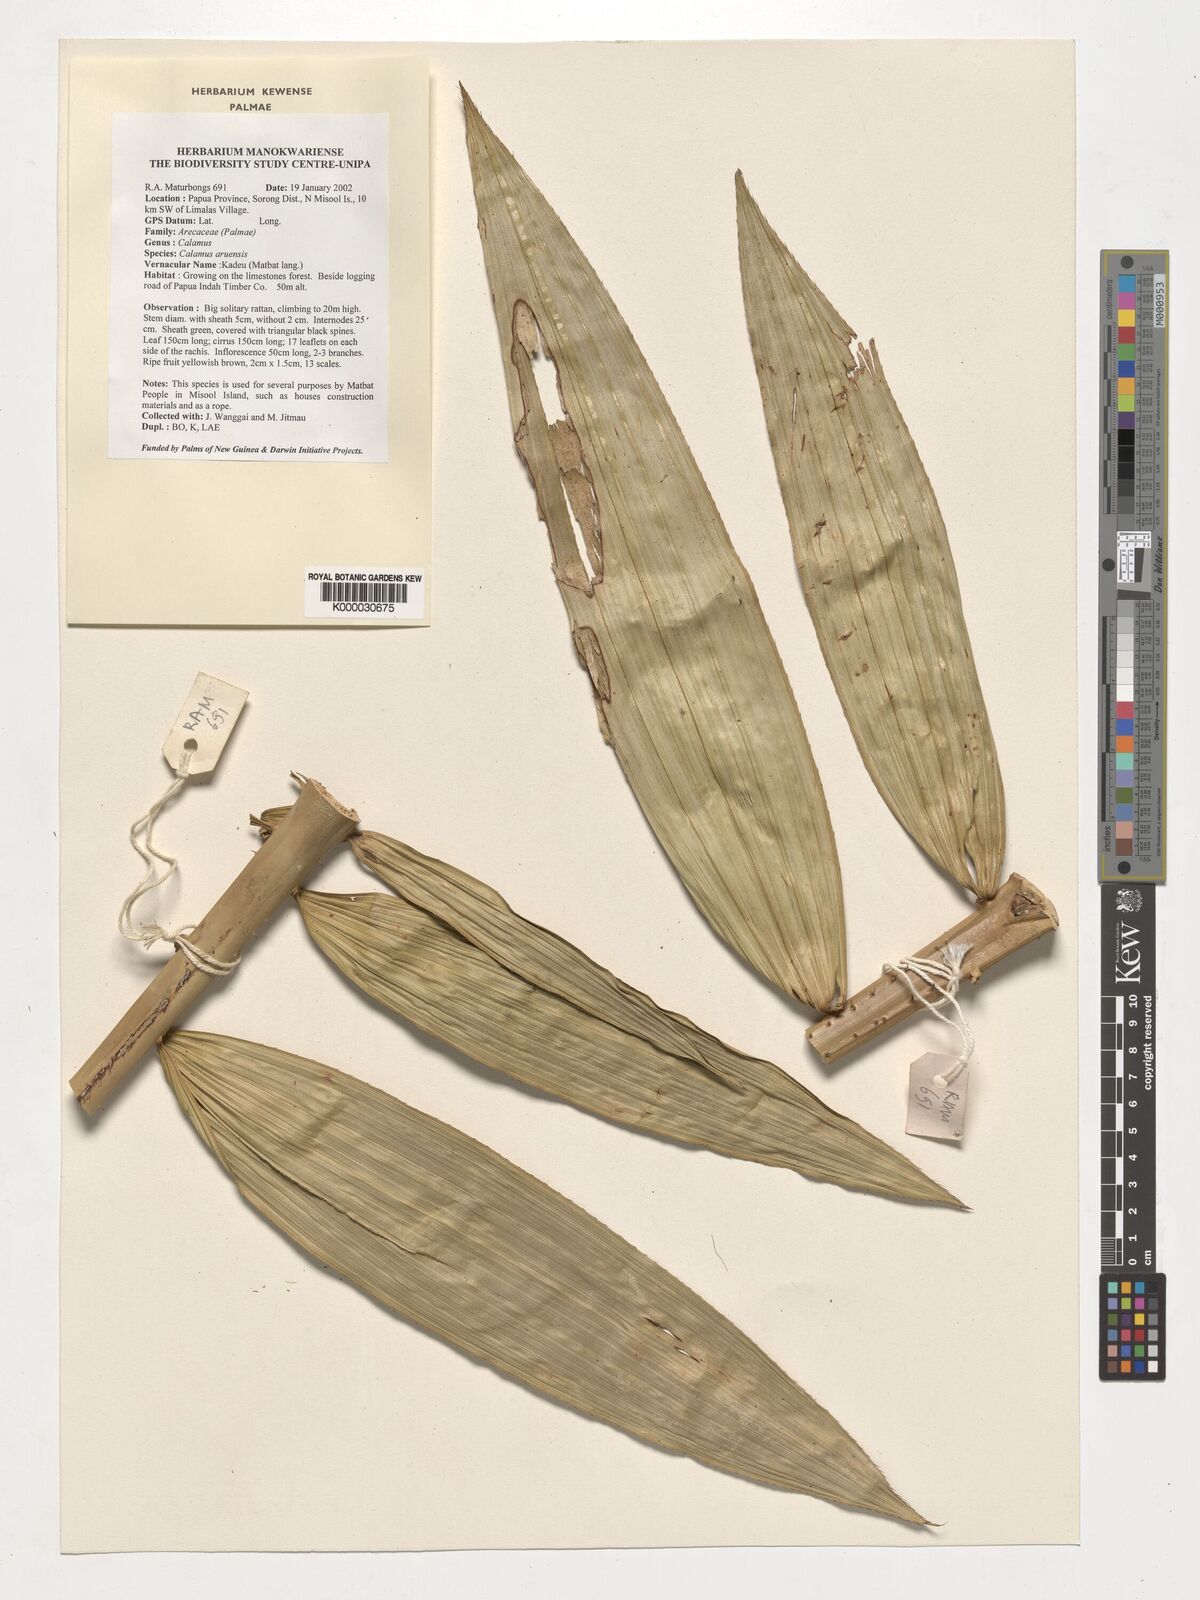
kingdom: Plantae
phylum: Tracheophyta
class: Liliopsida
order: Arecales
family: Arecaceae
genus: Calamus
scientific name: Calamus aruensis
